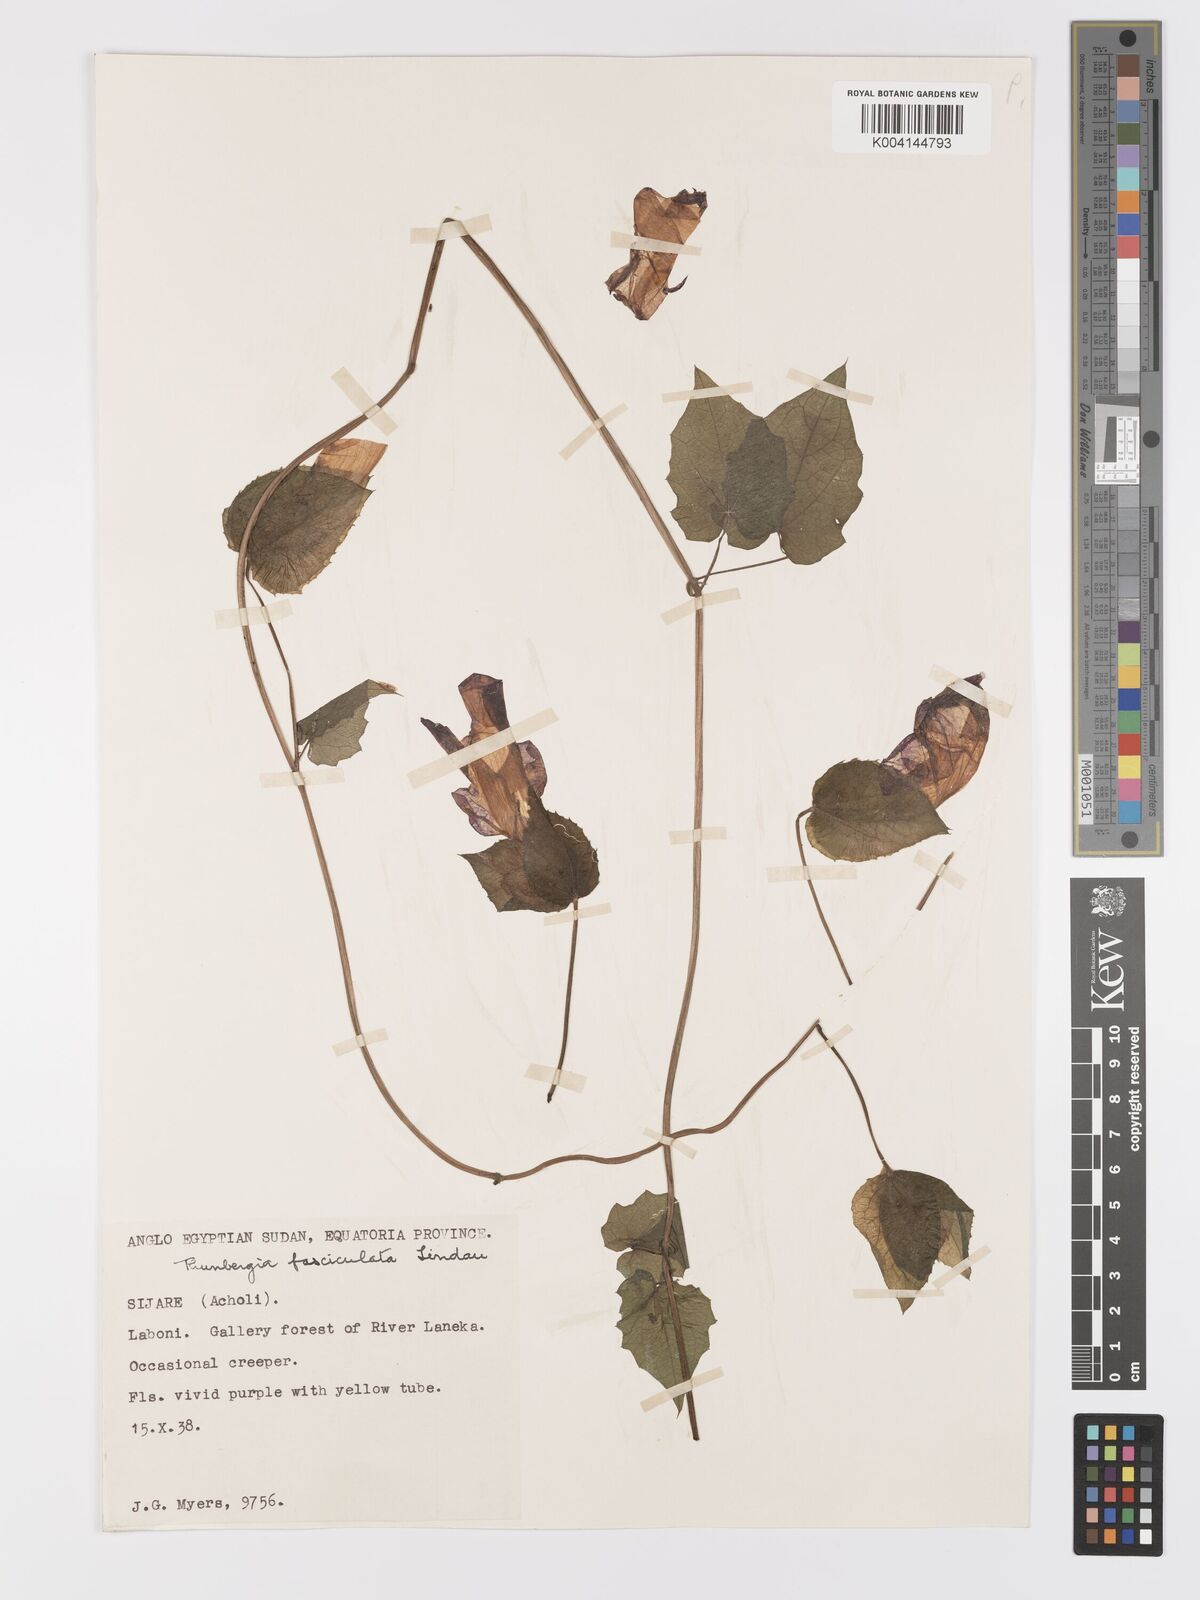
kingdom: Plantae
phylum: Tracheophyta
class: Magnoliopsida
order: Lamiales
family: Acanthaceae
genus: Thunbergia
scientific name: Thunbergia
